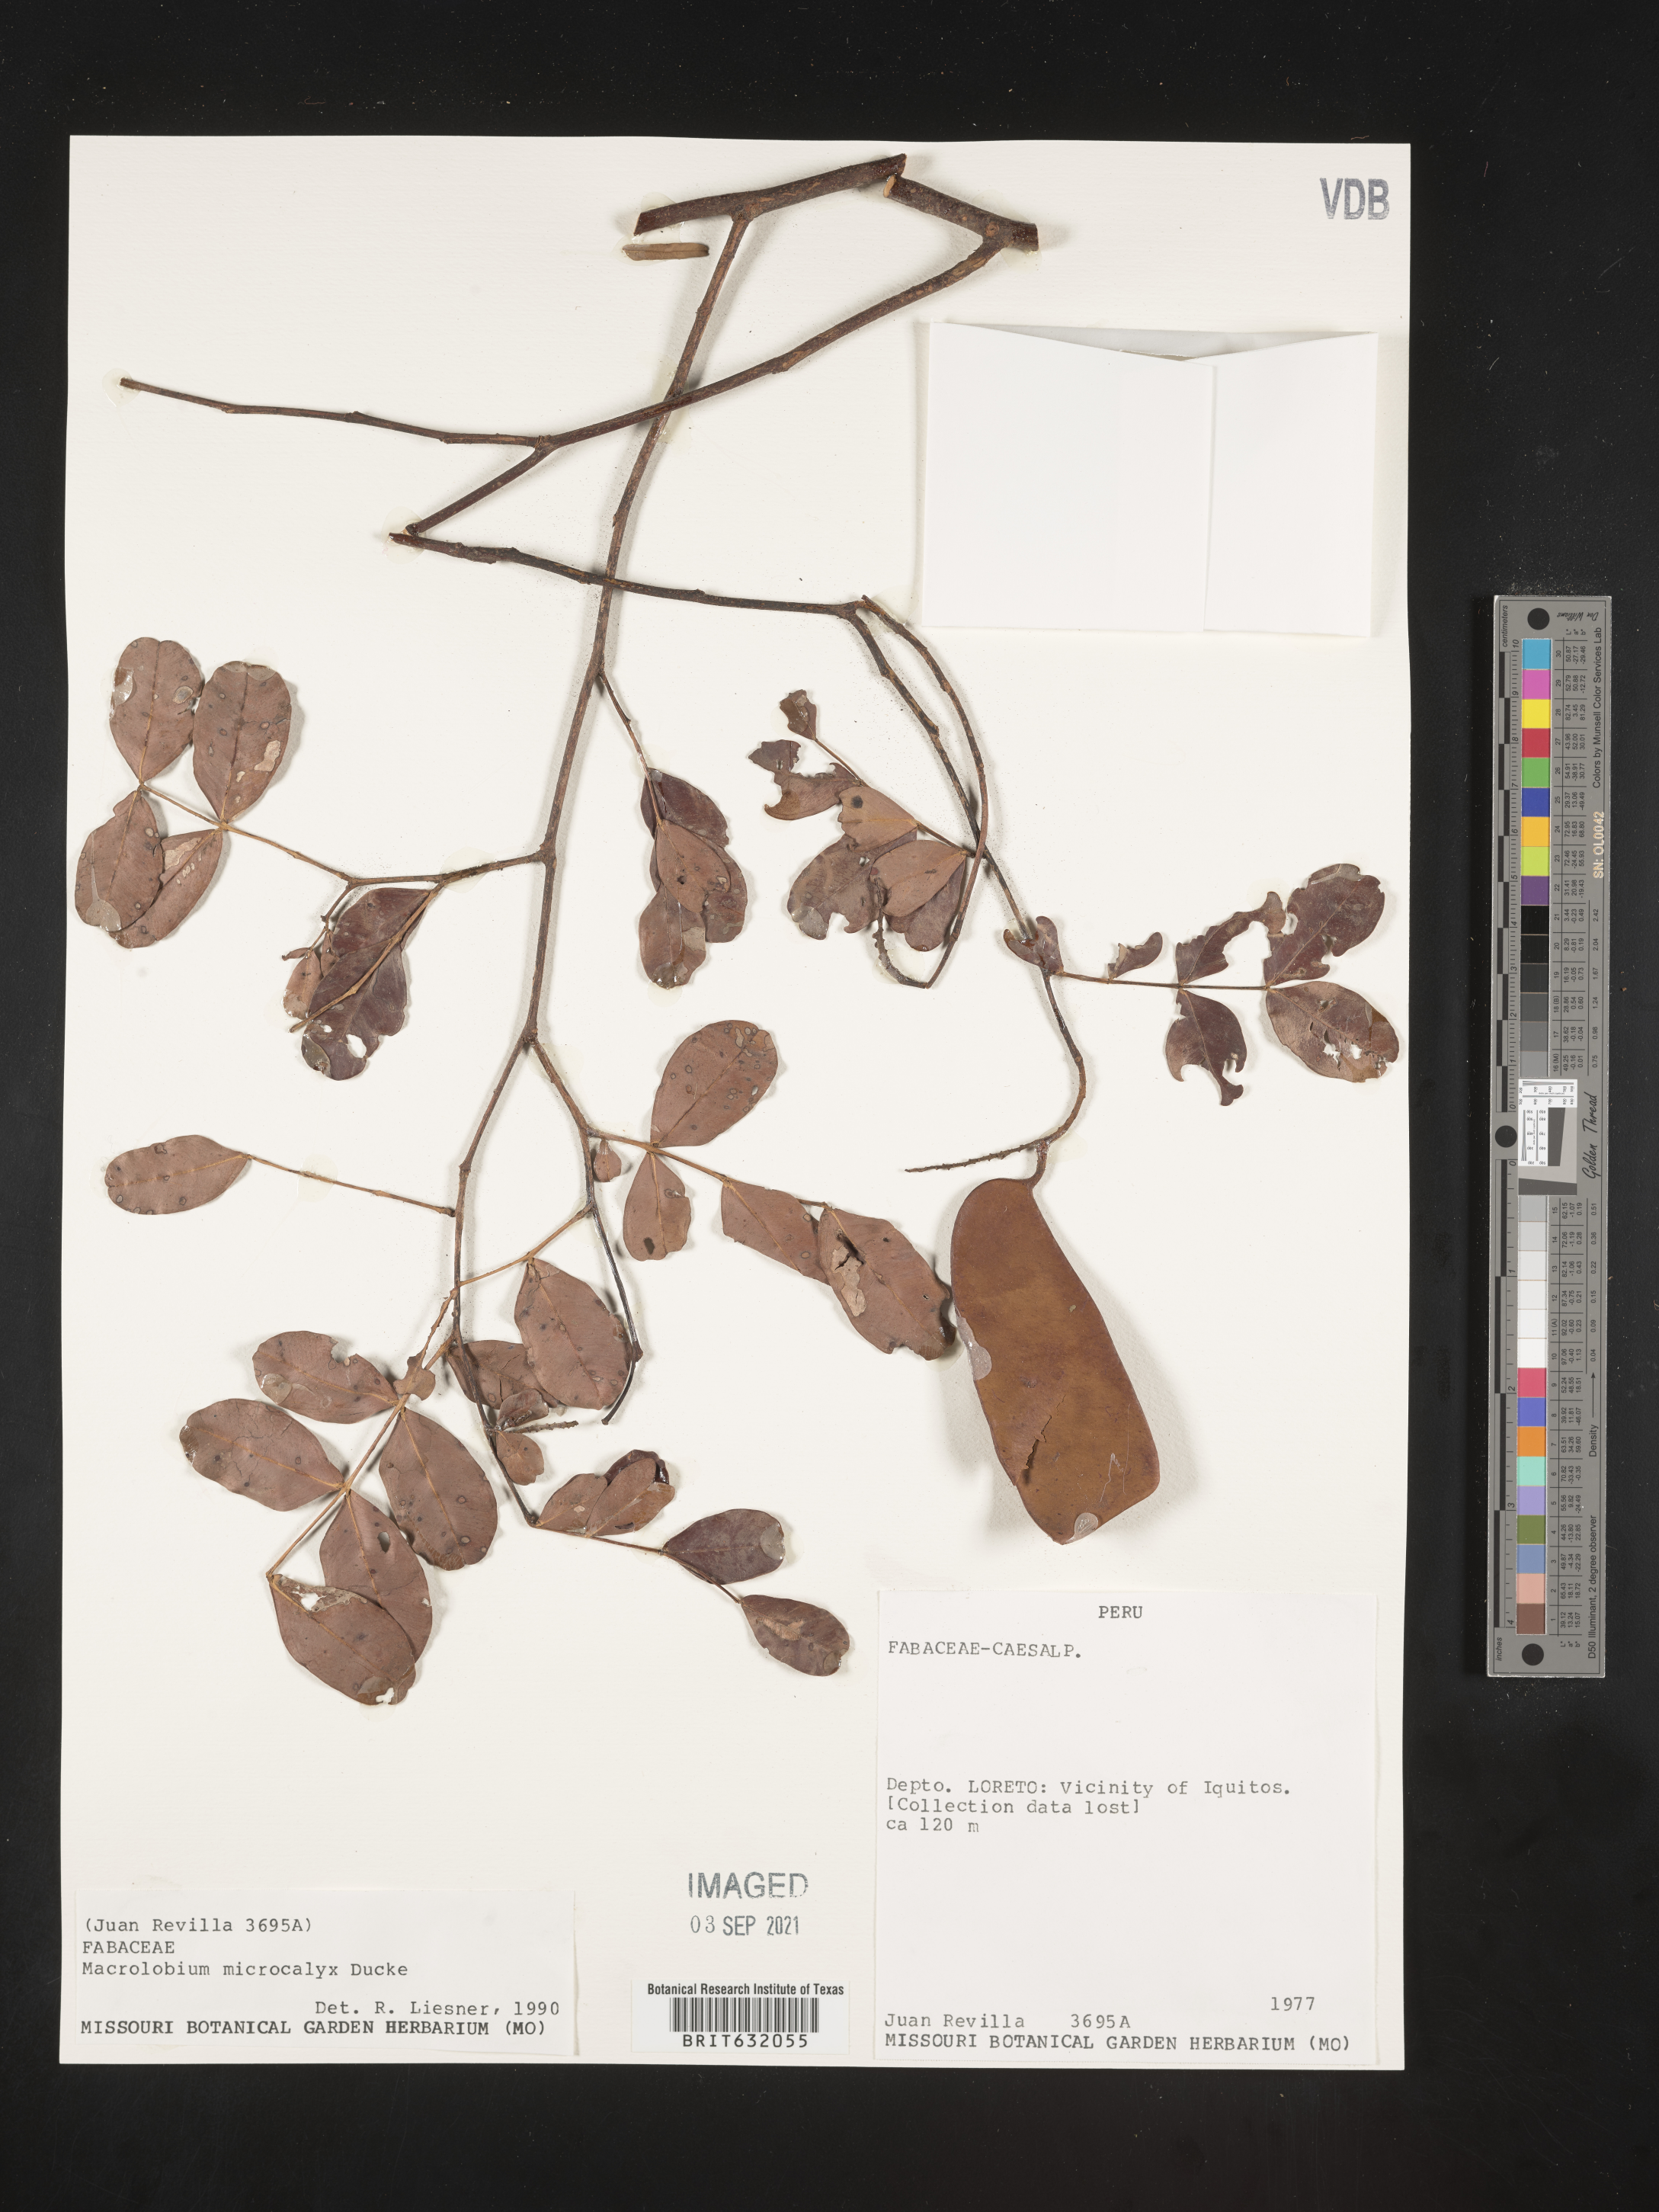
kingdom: Plantae
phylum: Tracheophyta
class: Magnoliopsida
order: Fabales
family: Fabaceae
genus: Macrolobium
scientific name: Macrolobium
